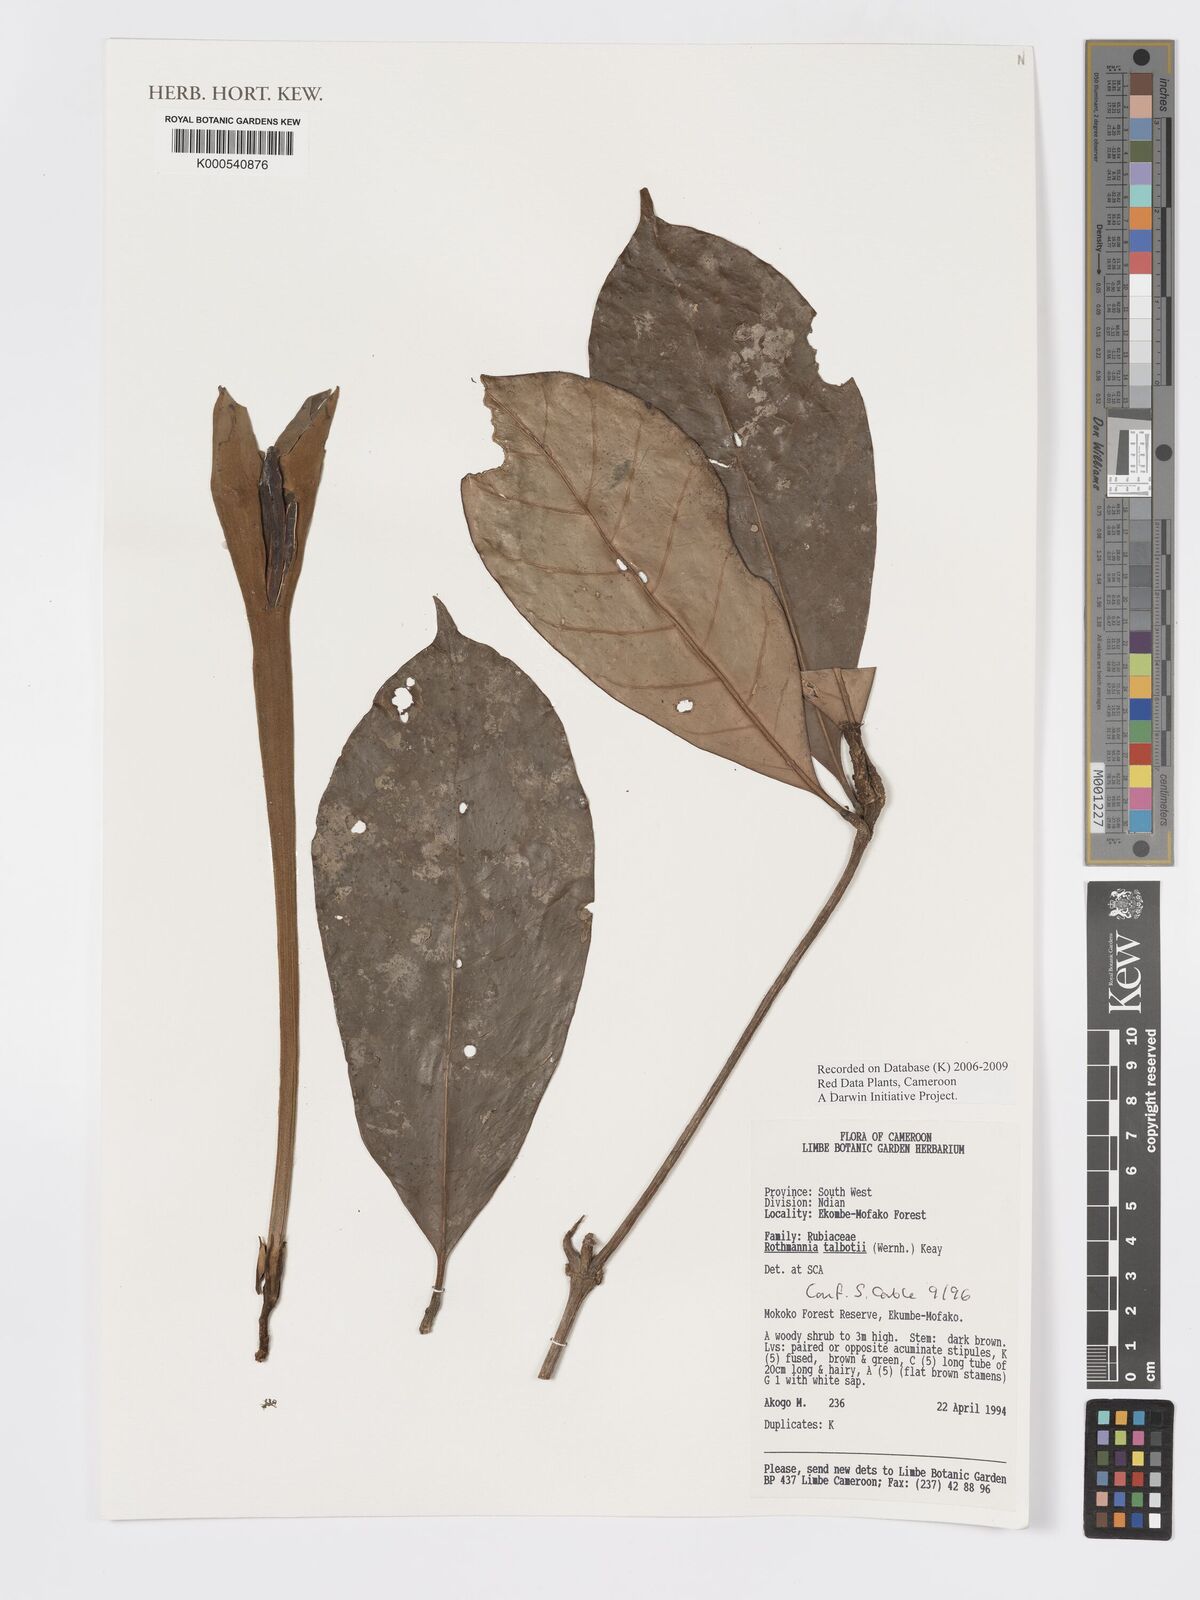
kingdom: Plantae
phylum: Tracheophyta
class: Magnoliopsida
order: Gentianales
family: Rubiaceae
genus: Rothmannia
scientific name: Rothmannia talbotii
